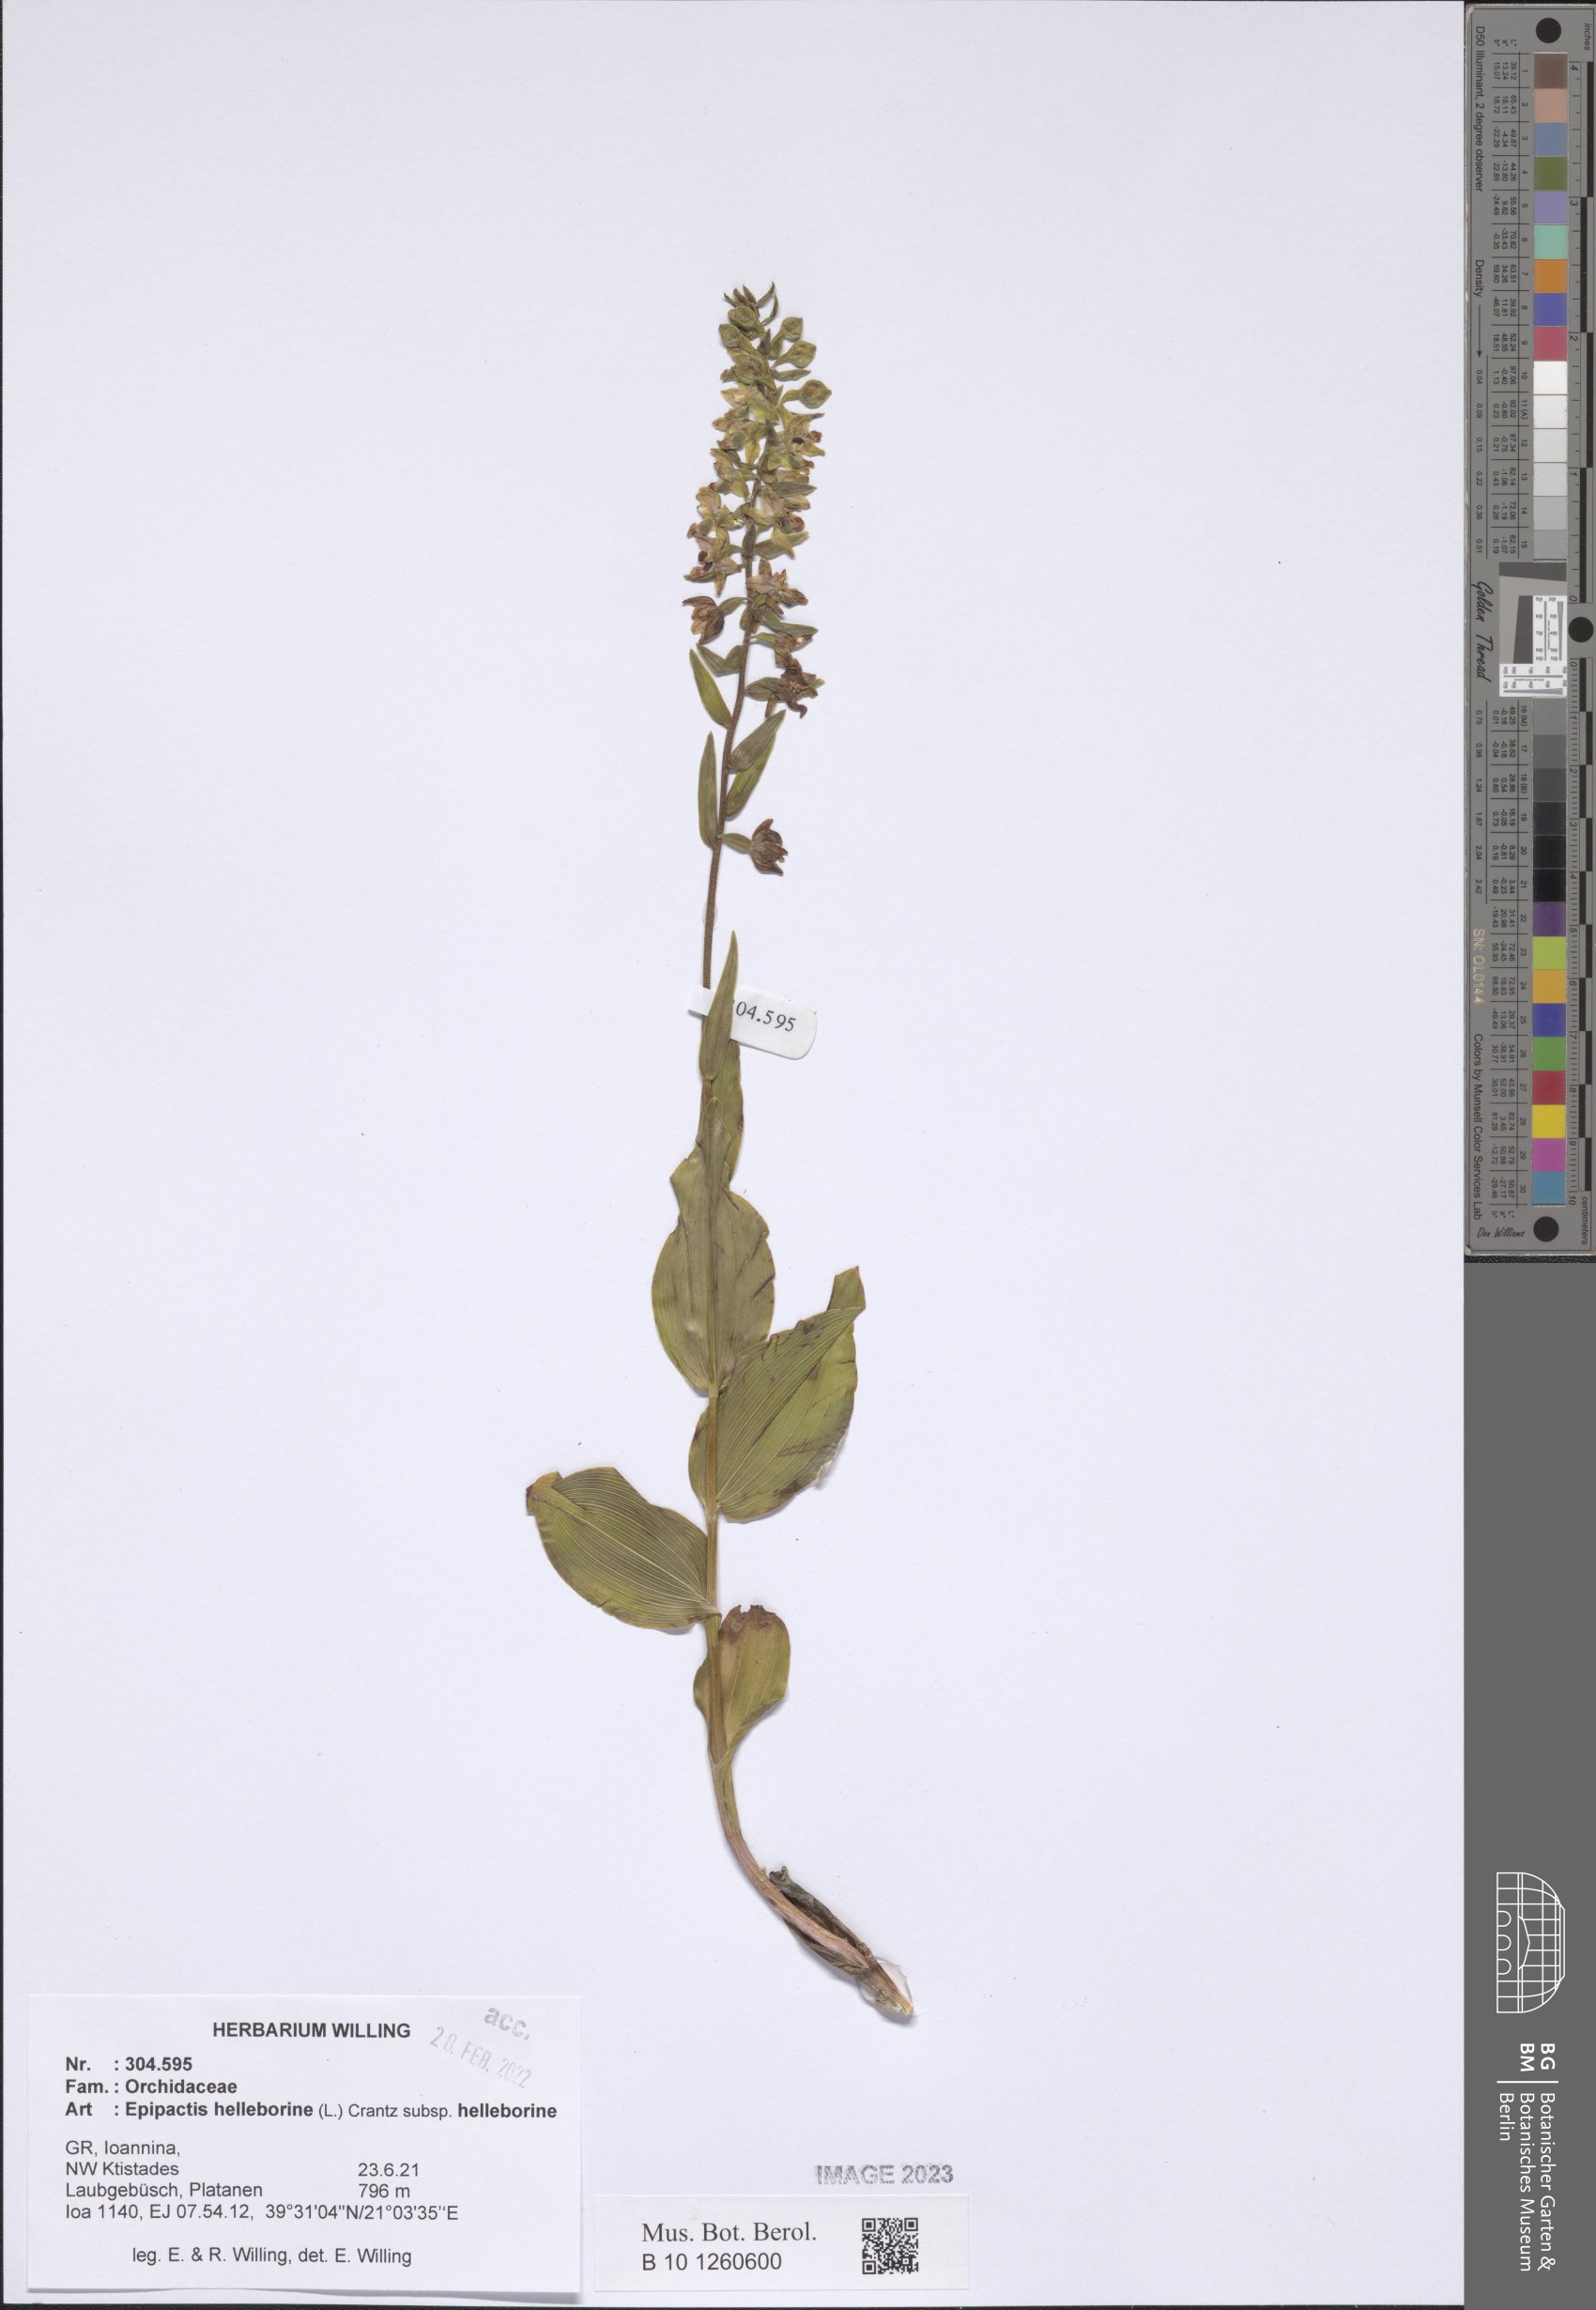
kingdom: Plantae
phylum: Tracheophyta
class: Liliopsida
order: Asparagales
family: Orchidaceae
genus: Epipactis
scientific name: Epipactis helleborine
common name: Broad-leaved helleborine
